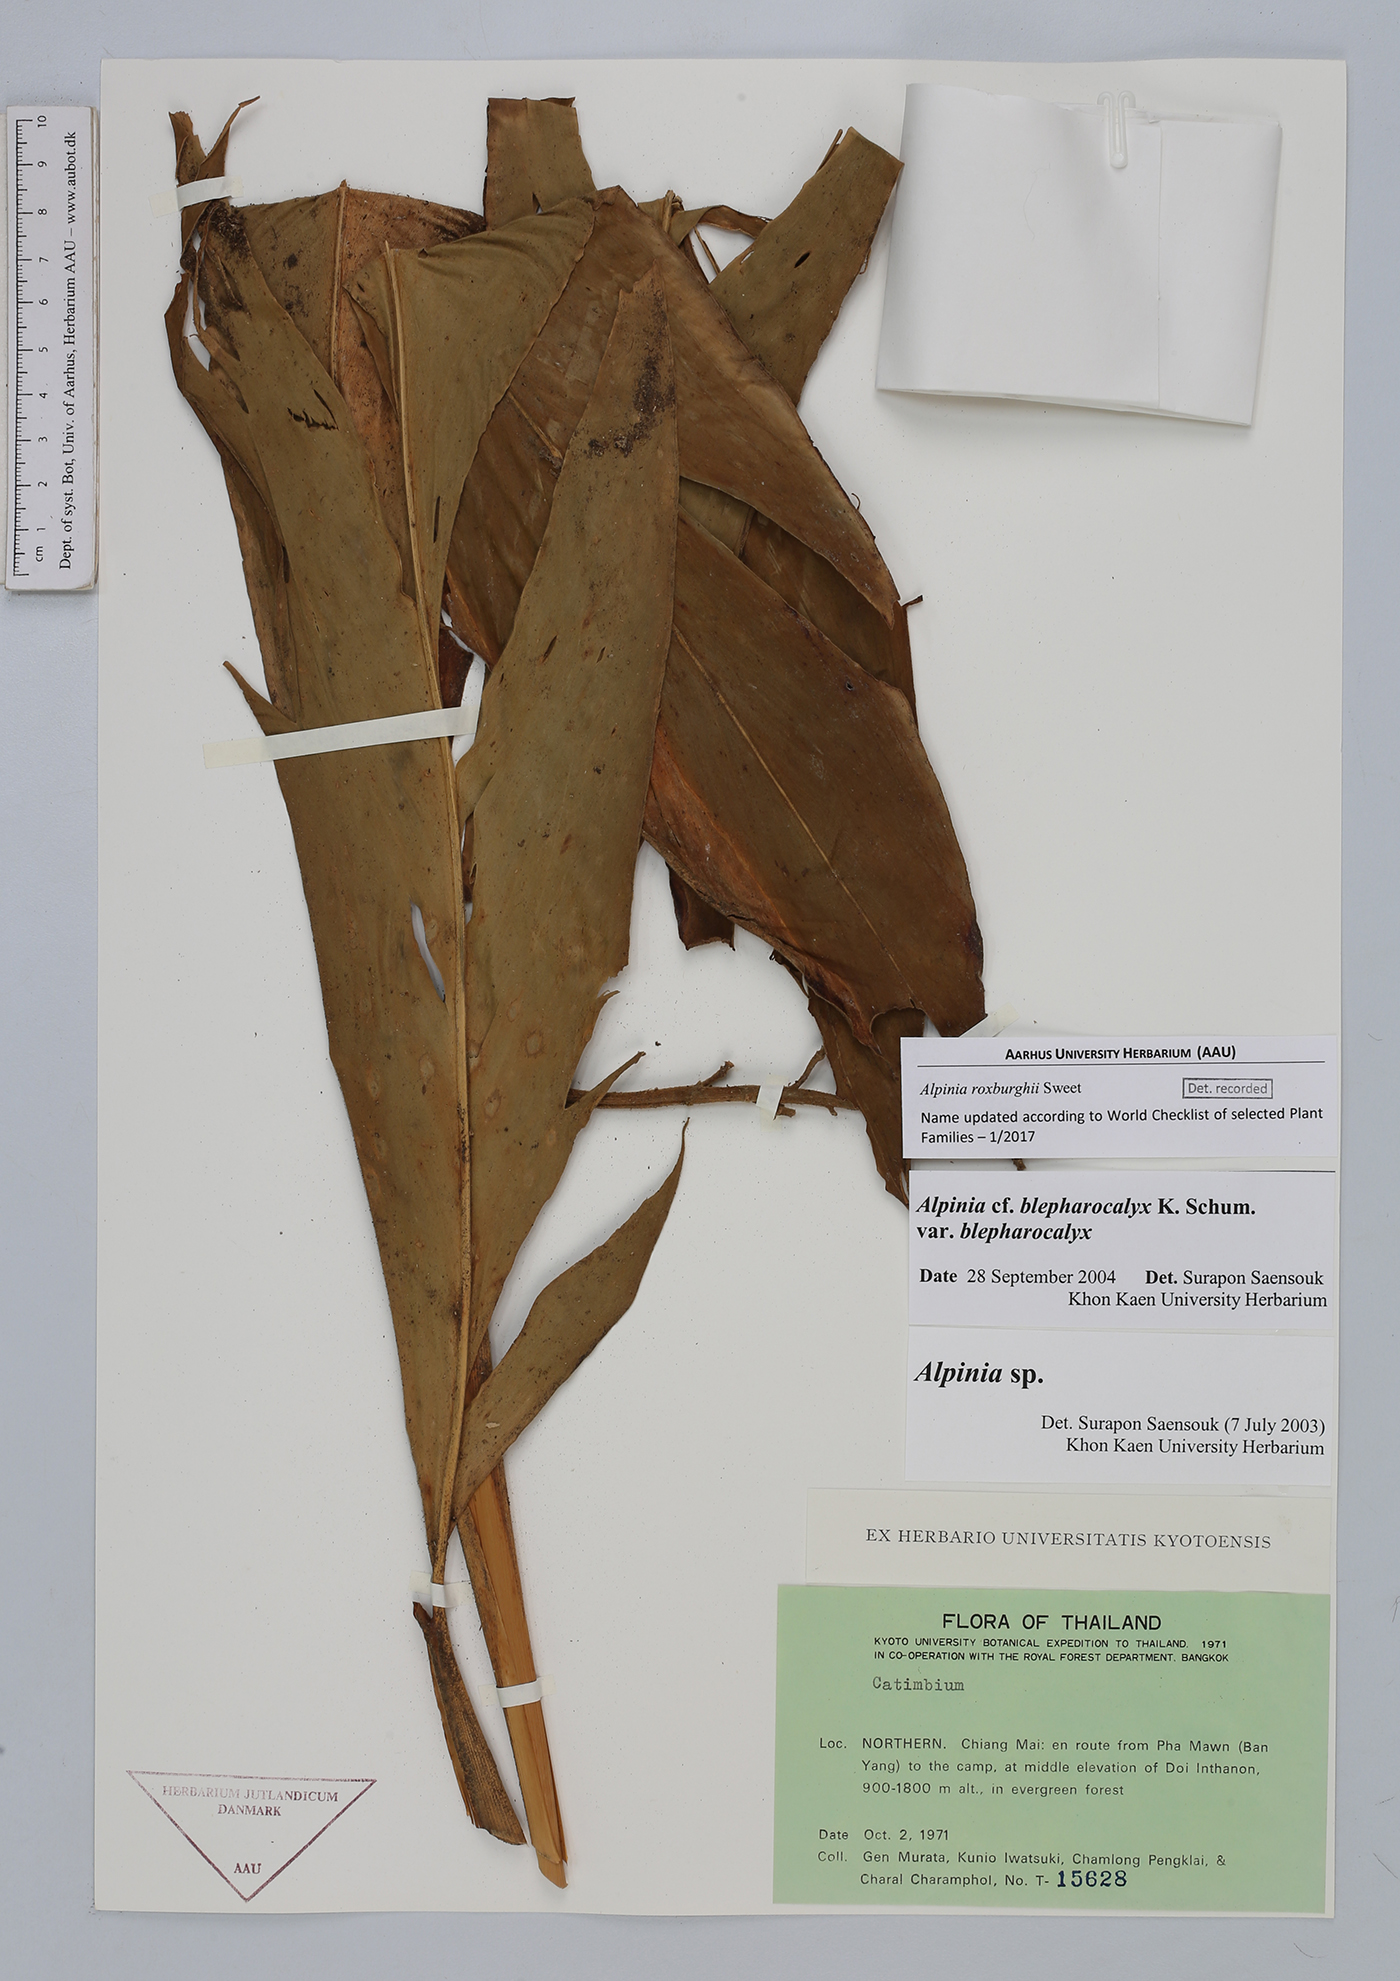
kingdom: Plantae
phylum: Tracheophyta
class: Liliopsida
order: Zingiberales
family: Zingiberaceae
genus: Alpinia
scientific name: Alpinia roxburghii
